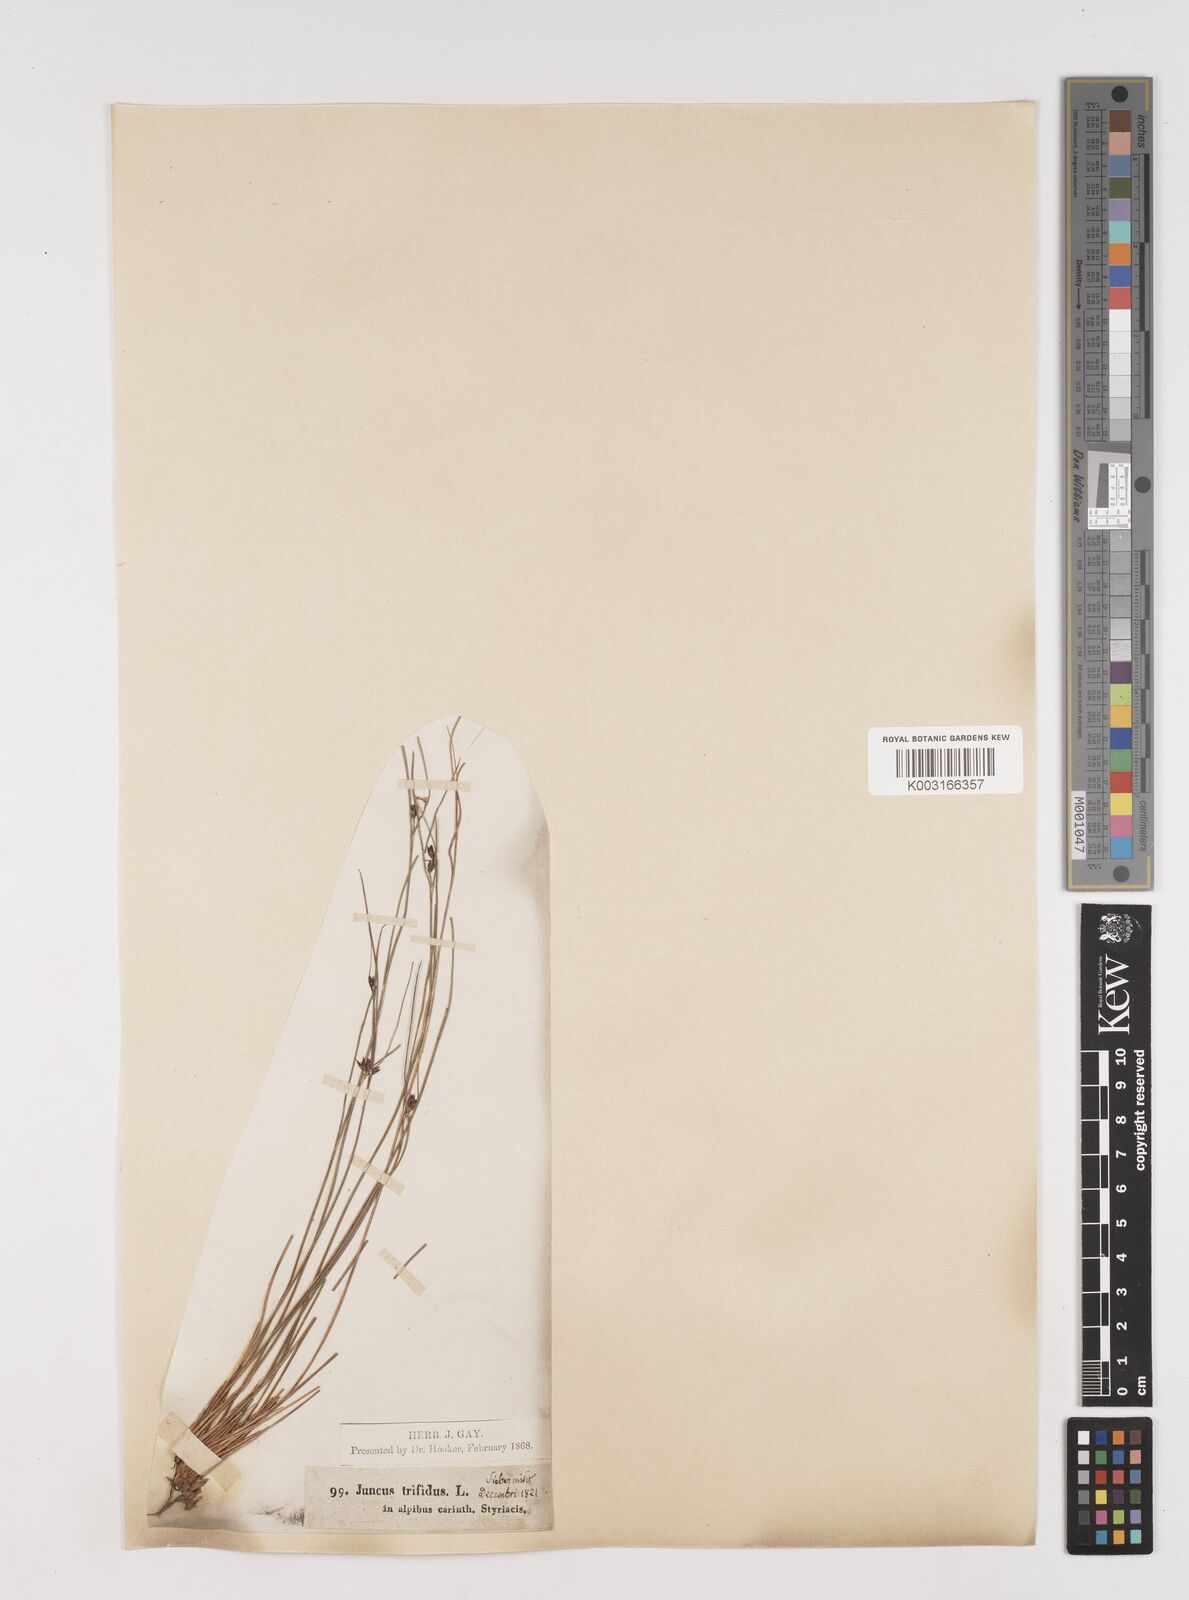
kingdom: Plantae
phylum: Tracheophyta
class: Liliopsida
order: Poales
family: Juncaceae
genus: Oreojuncus
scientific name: Oreojuncus trifidus
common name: Highland rush
